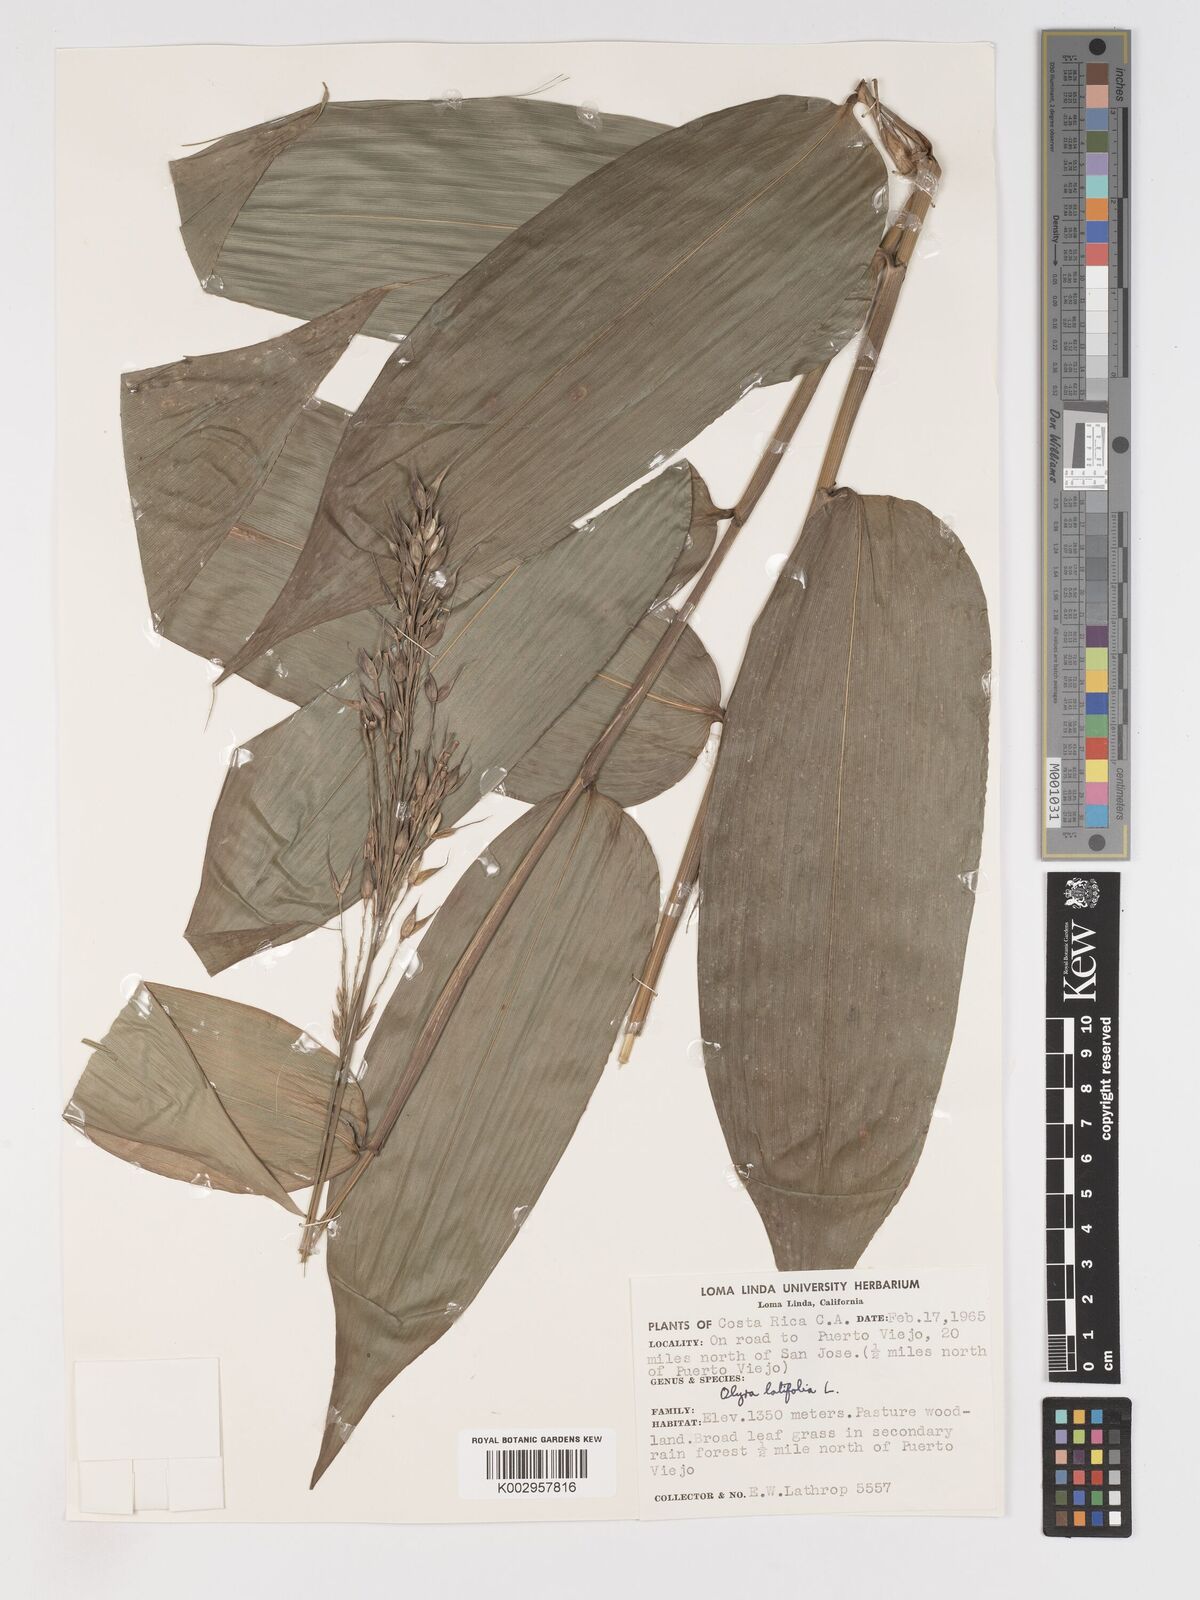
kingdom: Plantae
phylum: Tracheophyta
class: Liliopsida
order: Poales
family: Poaceae
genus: Olyra
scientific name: Olyra latifolia
